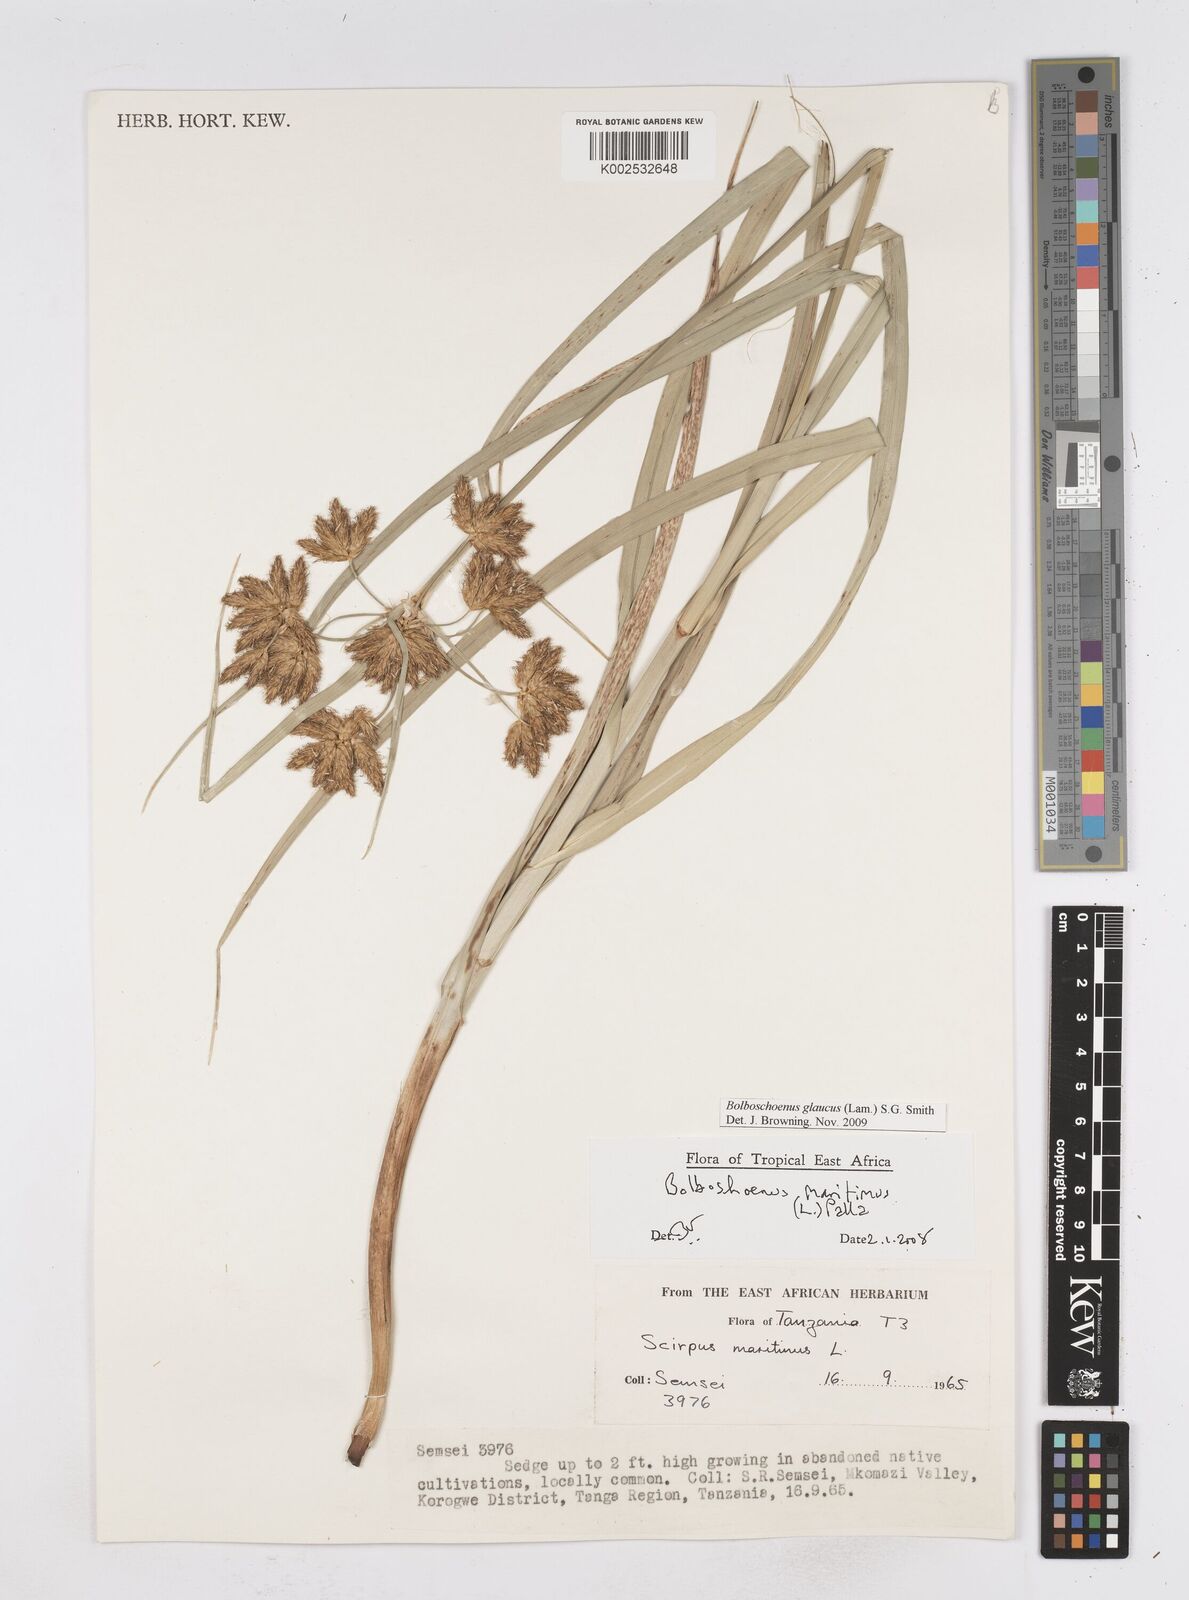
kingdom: Plantae
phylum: Tracheophyta
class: Liliopsida
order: Poales
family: Cyperaceae
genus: Bolboschoenus
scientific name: Bolboschoenus glaucus
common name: Tuberous bulrush
